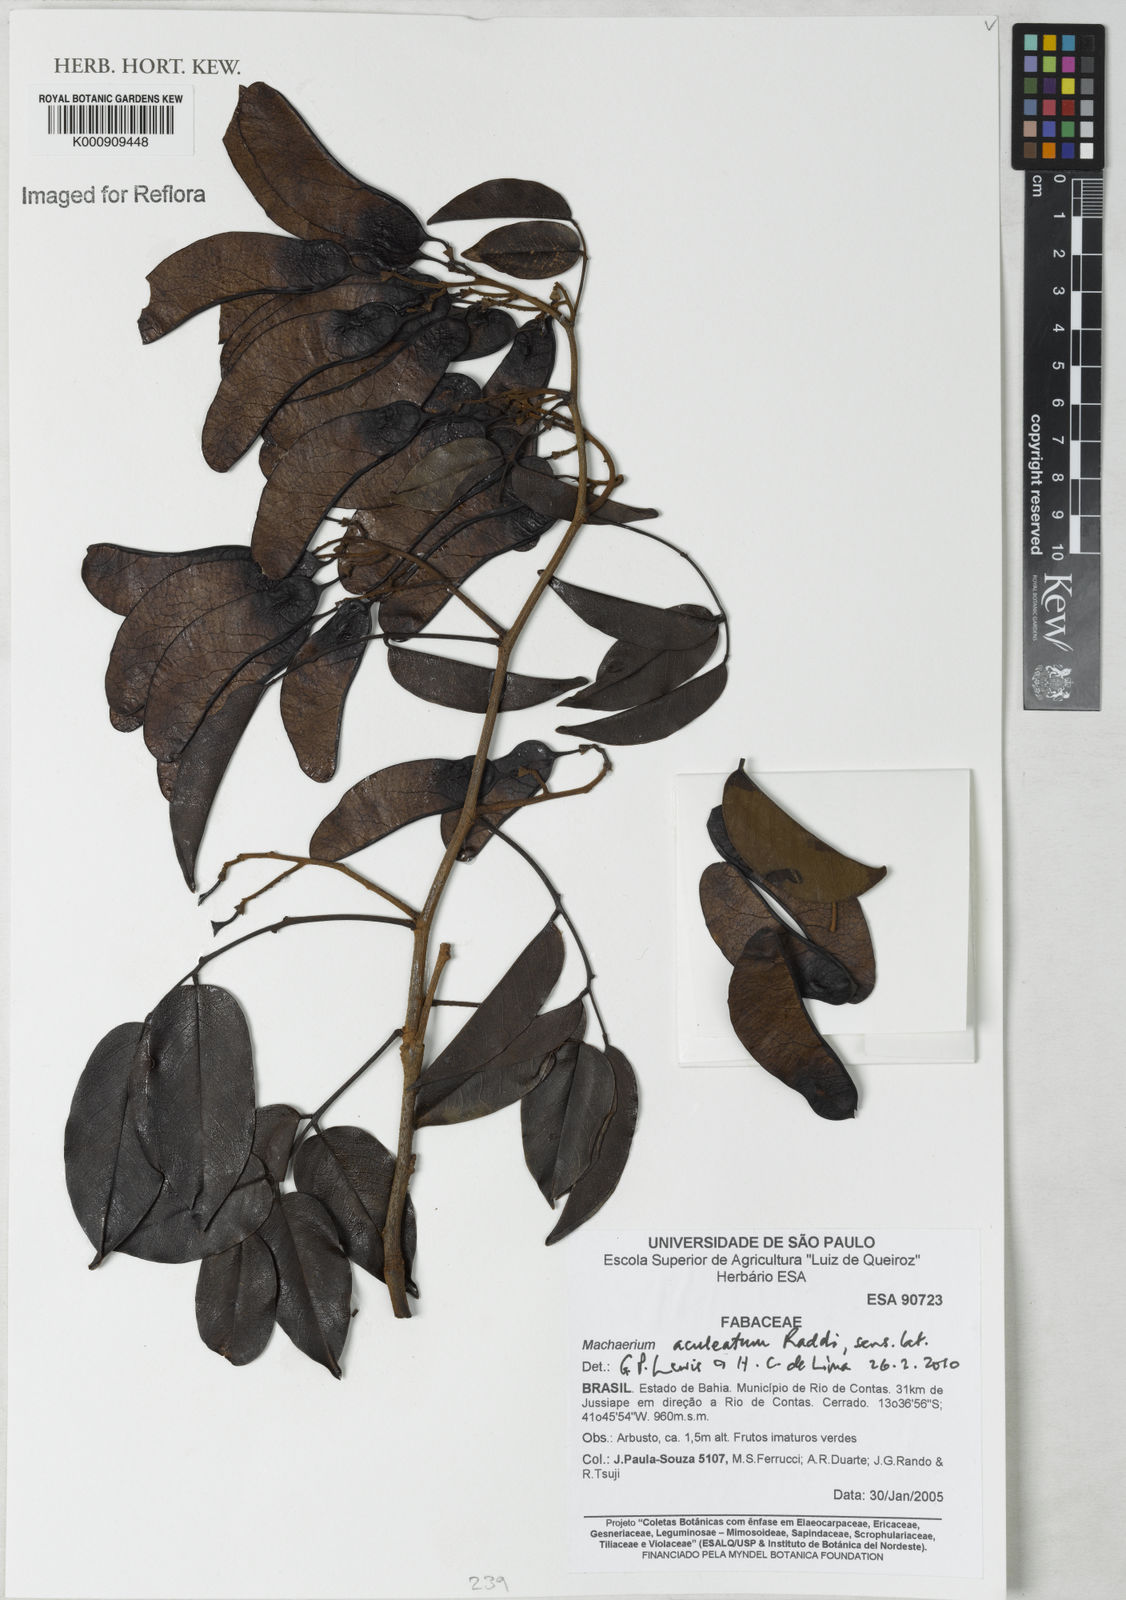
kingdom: Plantae
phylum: Tracheophyta
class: Magnoliopsida
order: Fabales
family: Fabaceae
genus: Machaerium
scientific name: Machaerium aculeatum
